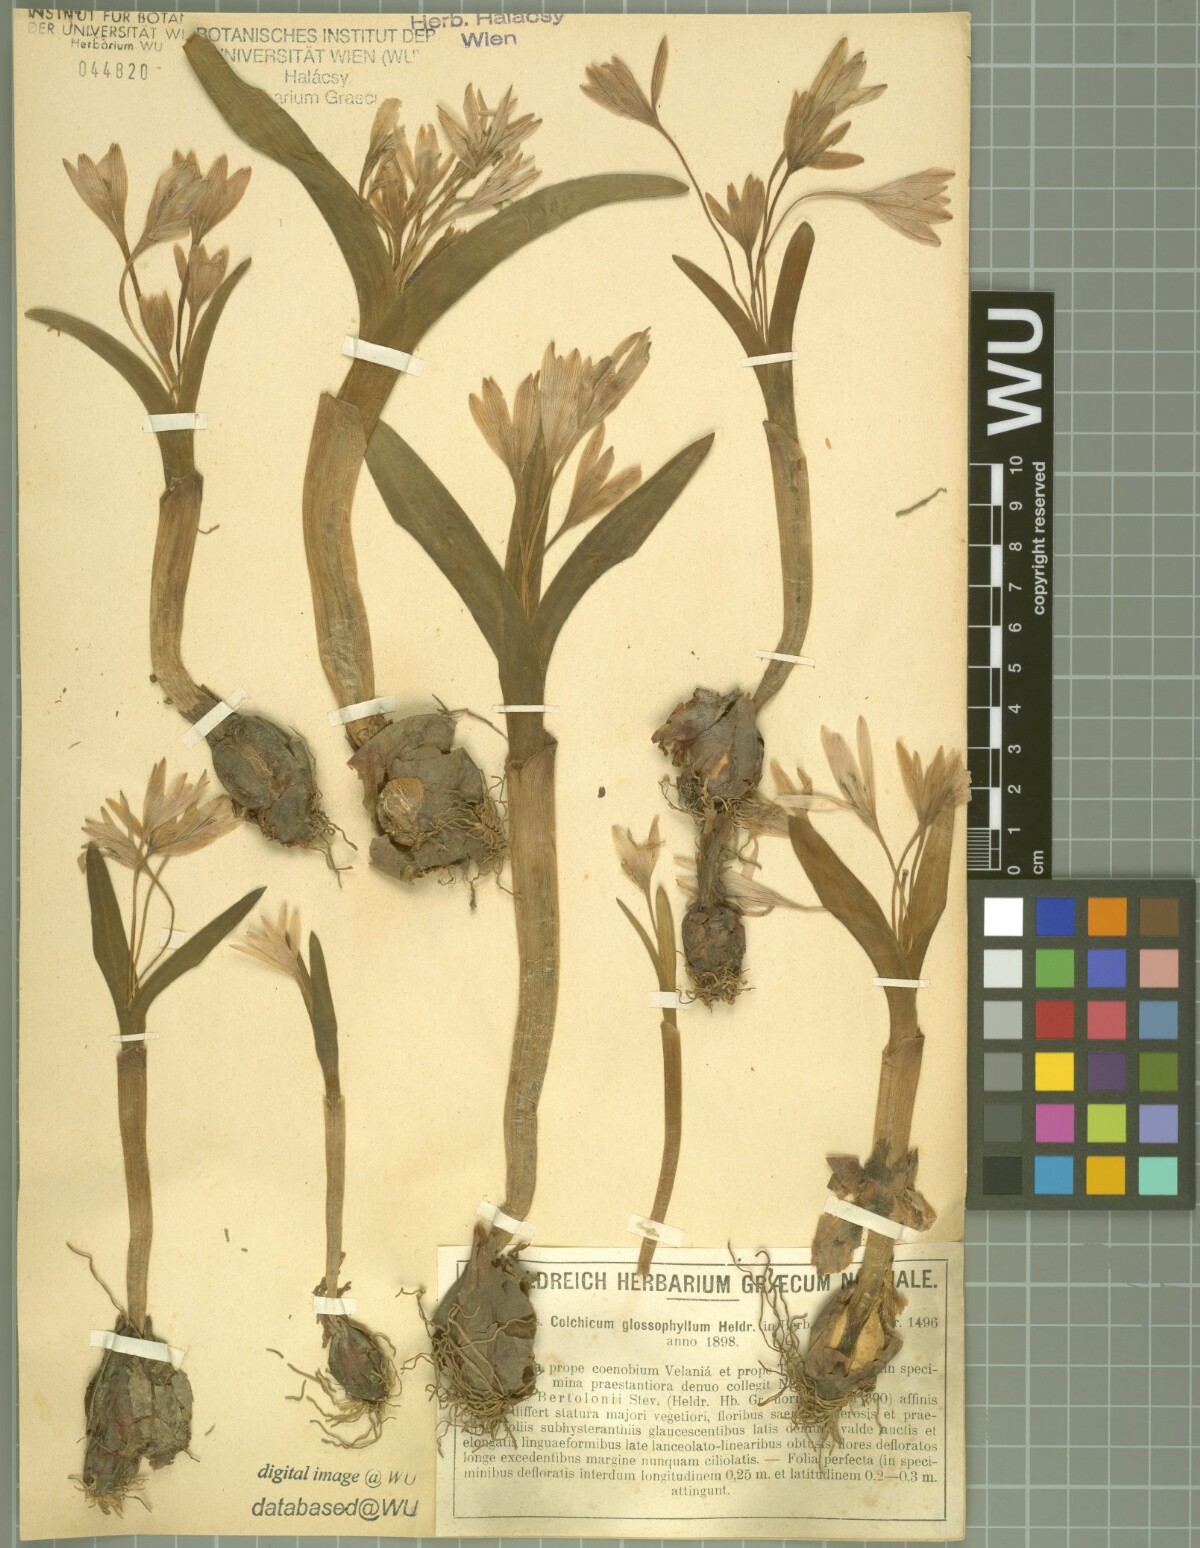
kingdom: Plantae
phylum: Tracheophyta
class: Liliopsida
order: Liliales
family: Colchicaceae
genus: Colchicum
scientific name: Colchicum cupanii
